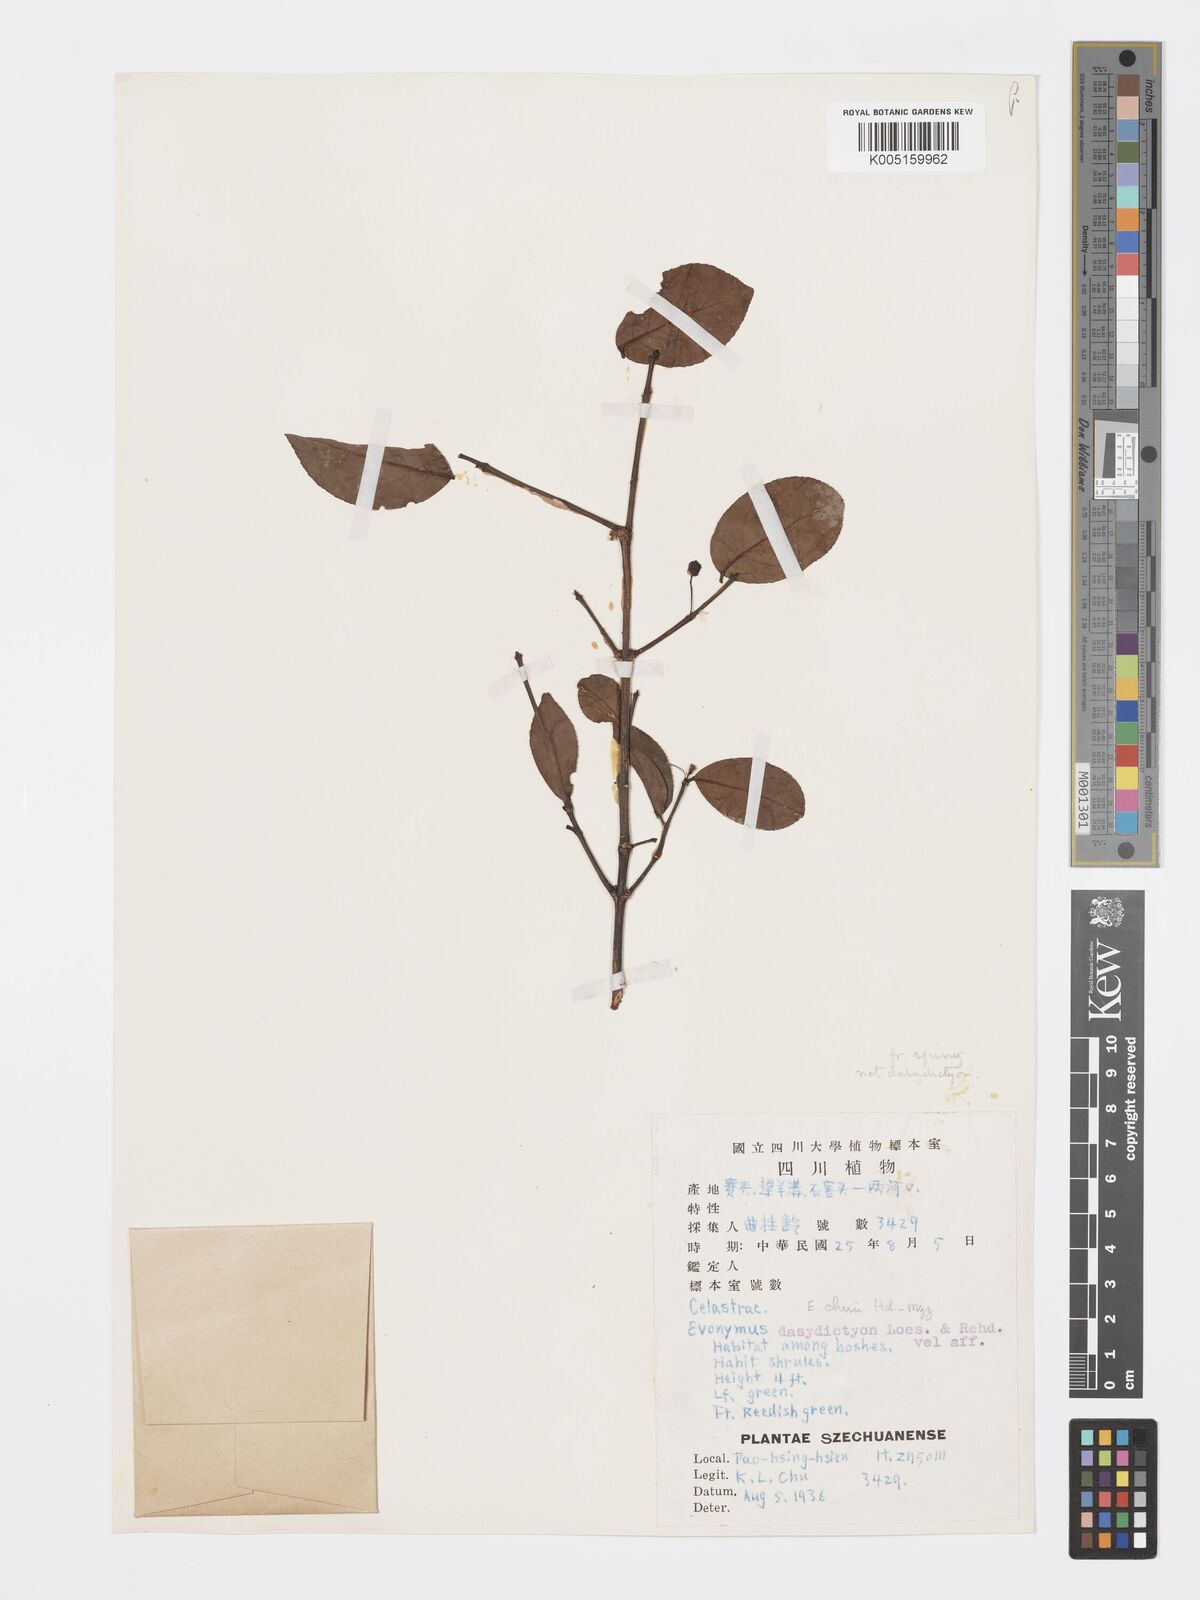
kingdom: Plantae
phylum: Tracheophyta
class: Magnoliopsida
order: Celastrales
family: Celastraceae
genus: Euonymus
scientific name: Euonymus chui
